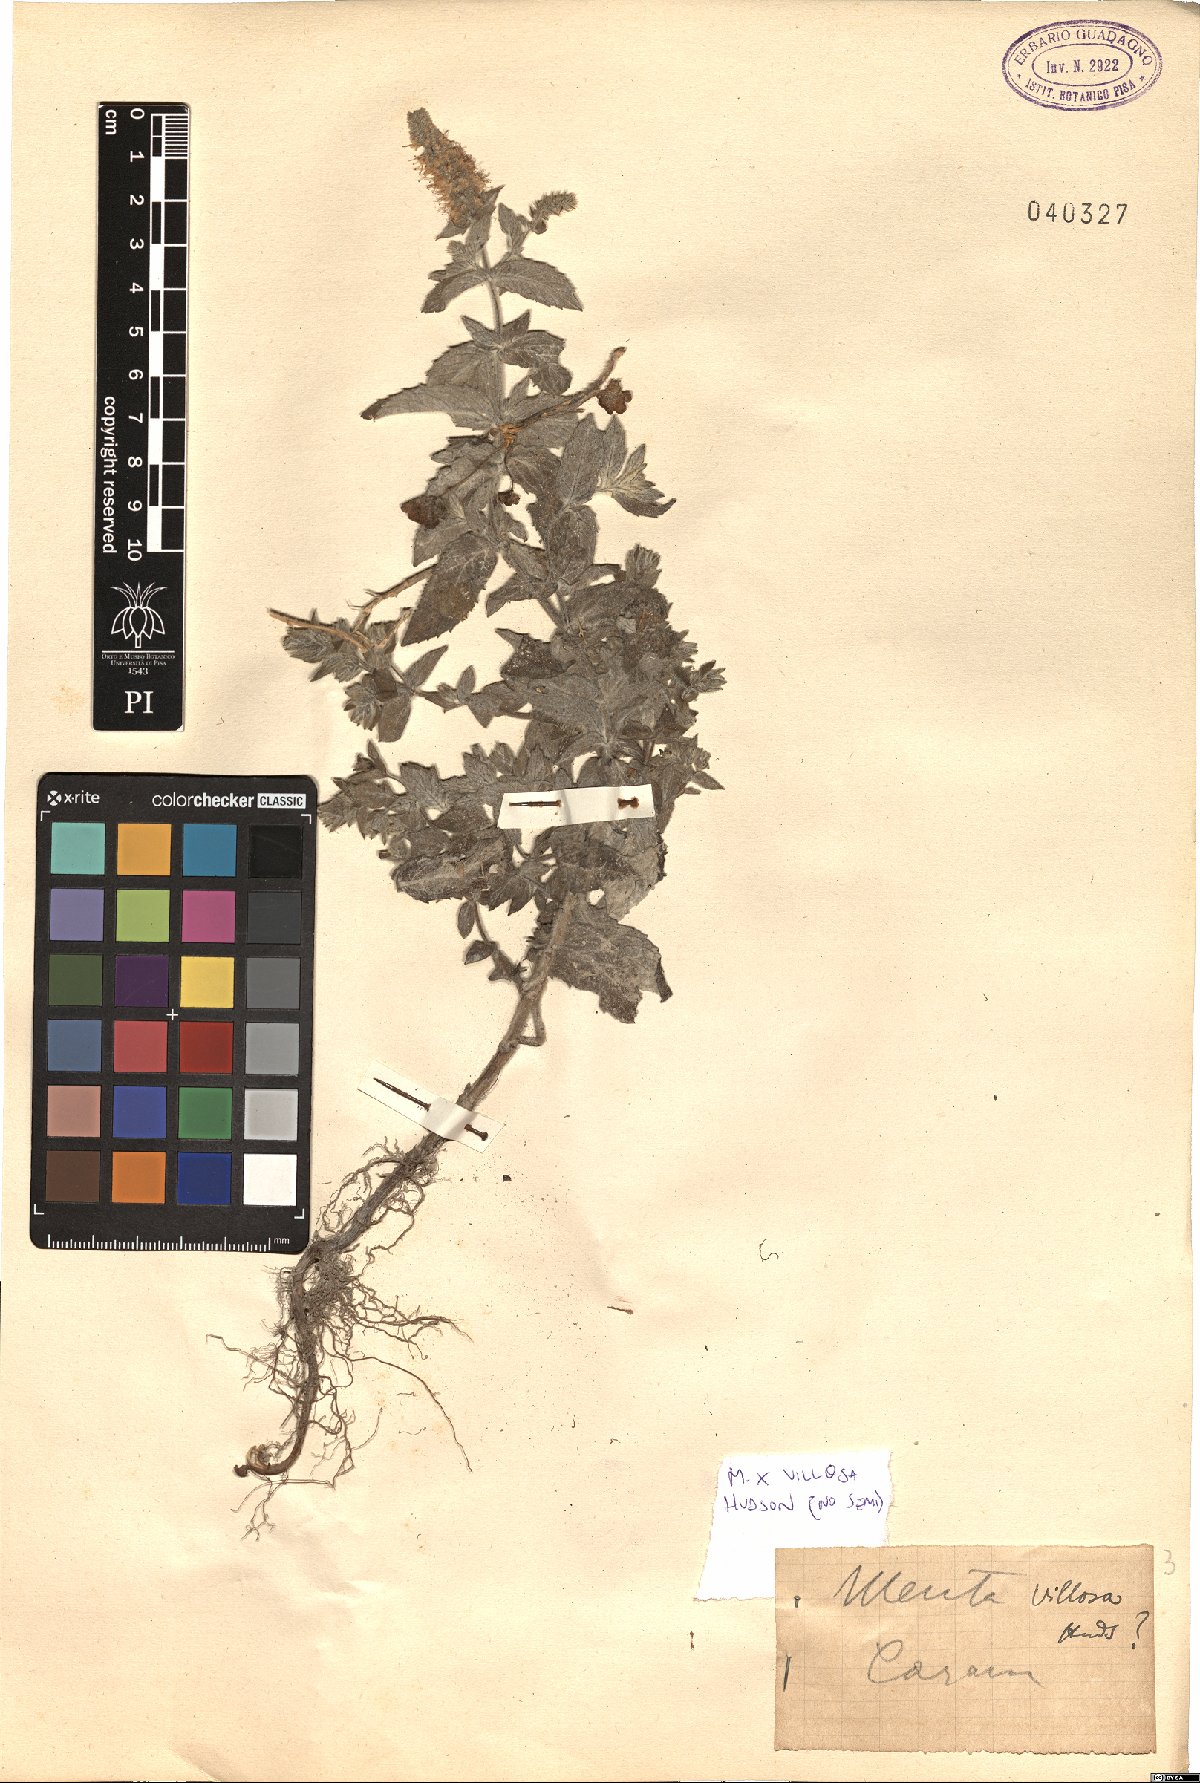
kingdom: Plantae
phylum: Tracheophyta
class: Magnoliopsida
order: Lamiales
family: Lamiaceae
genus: Mentha
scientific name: Mentha villosa
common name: Apple mint
